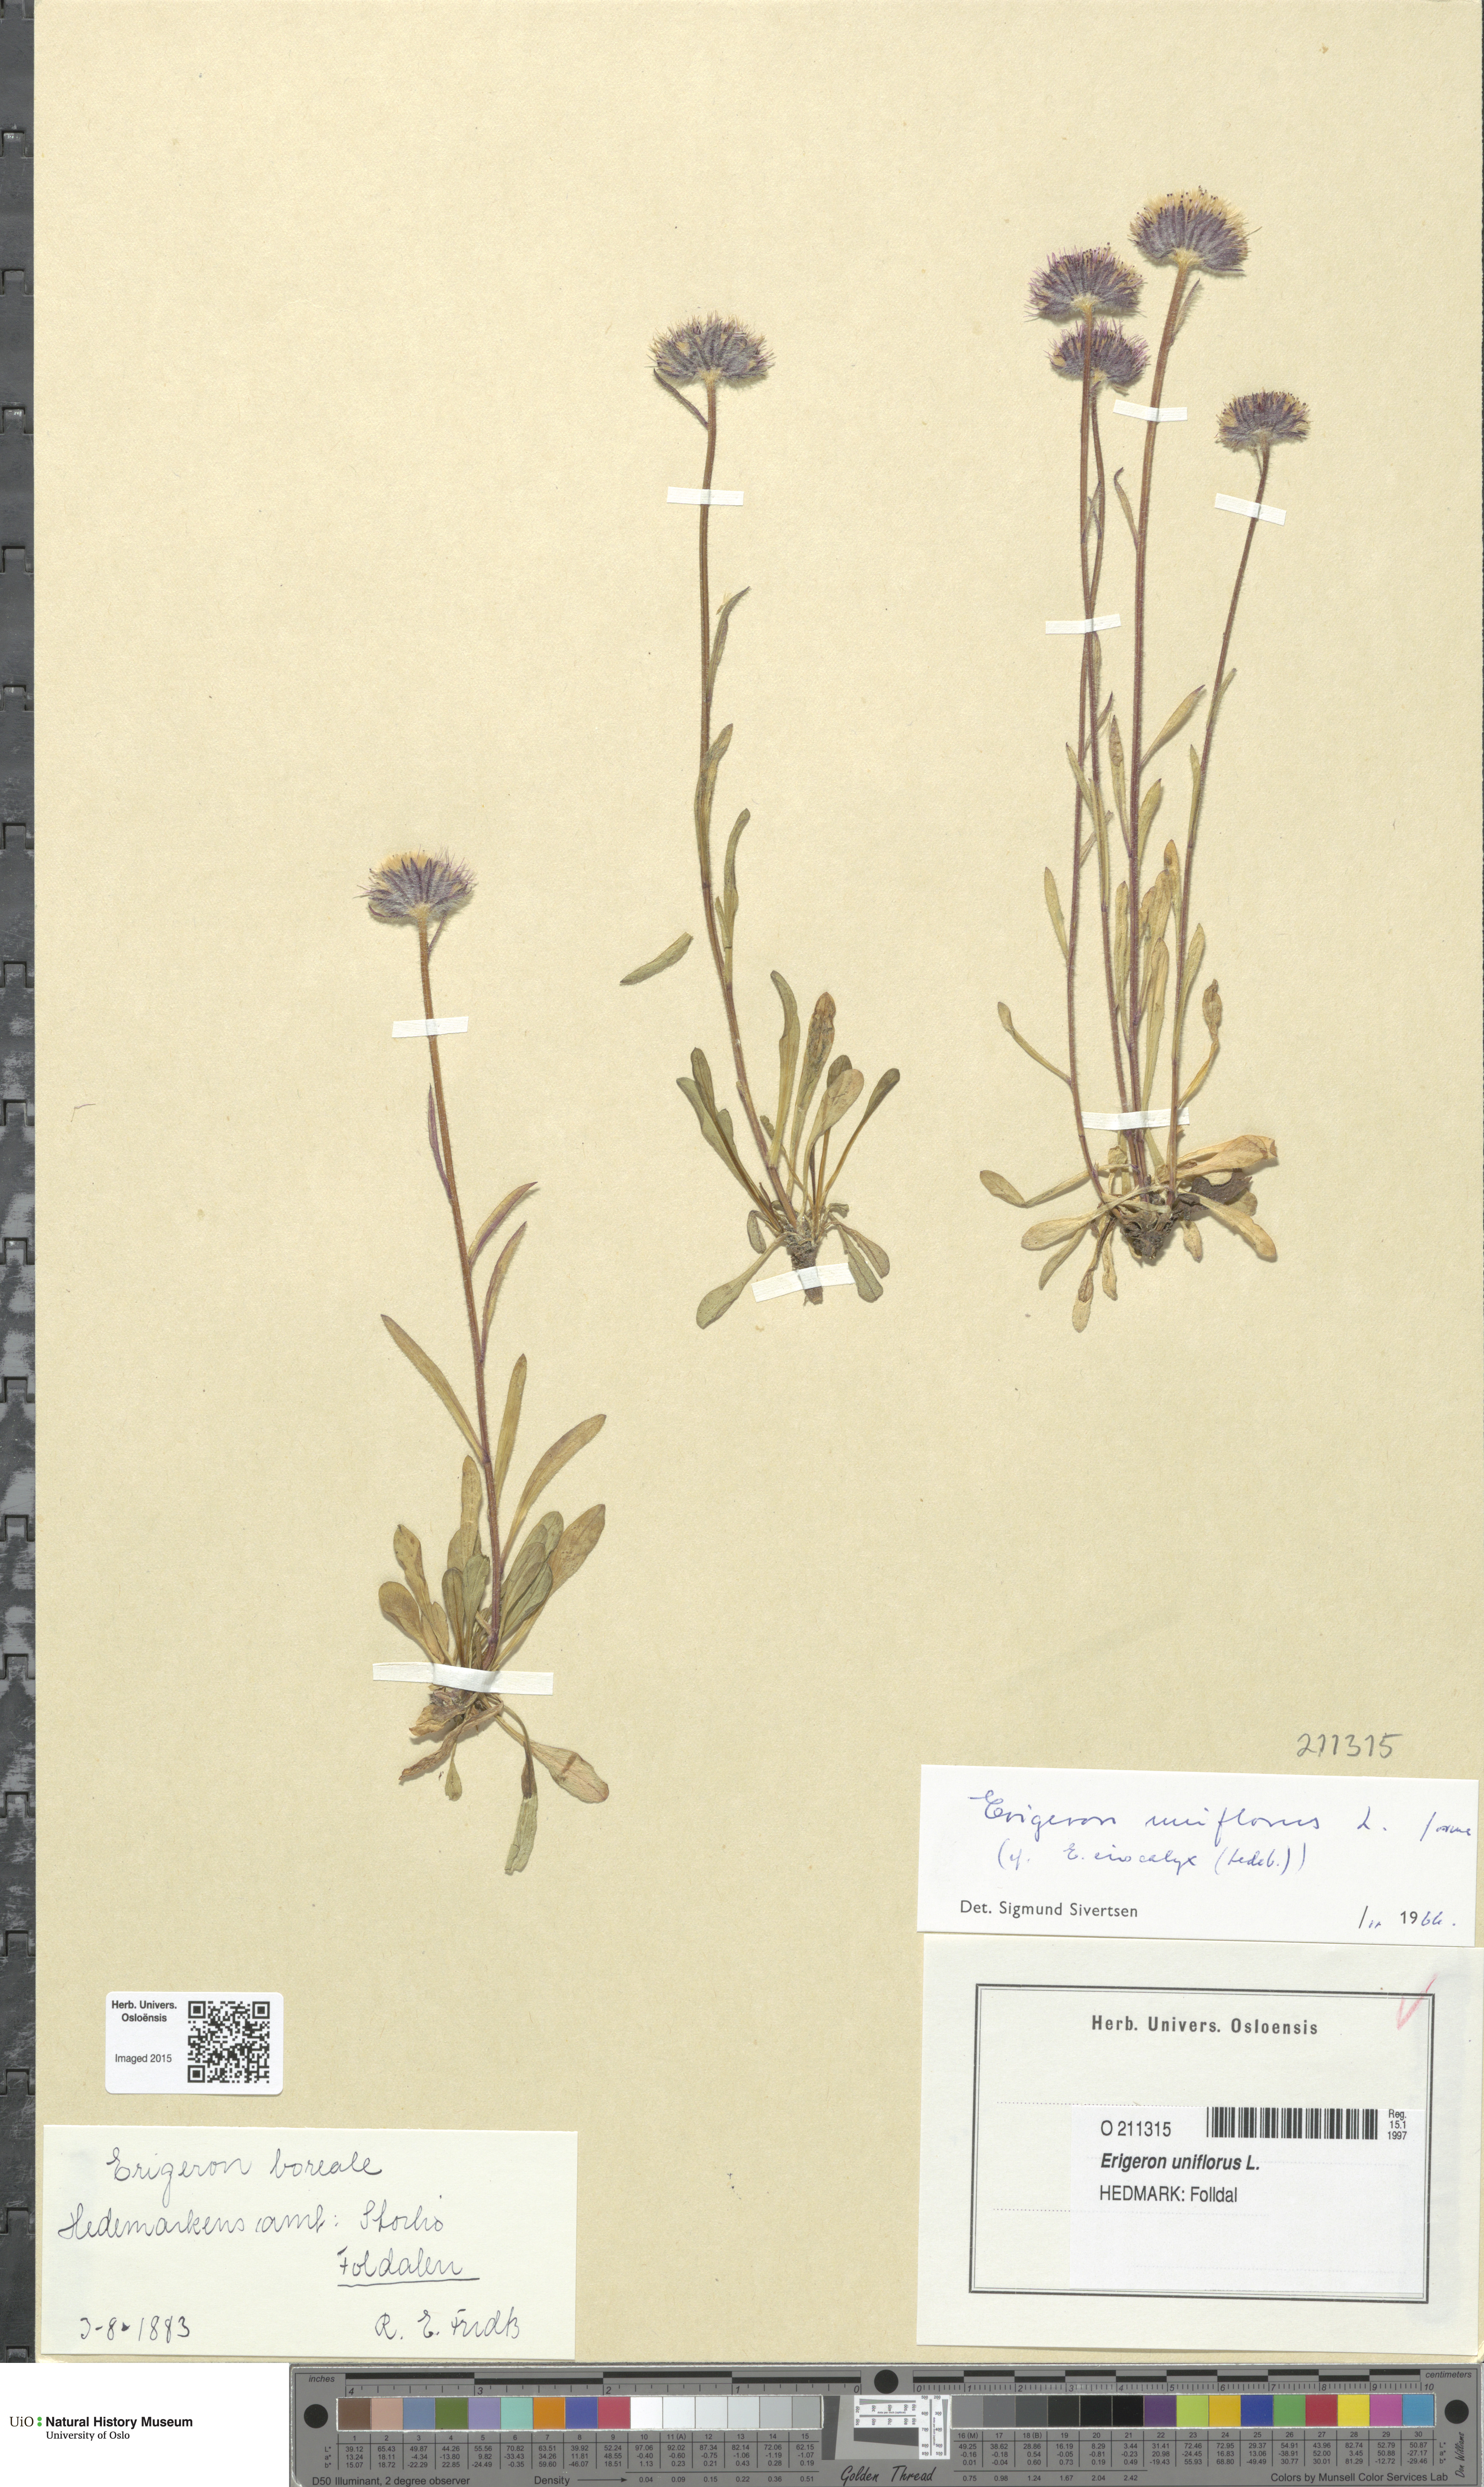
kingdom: Plantae
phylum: Tracheophyta
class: Magnoliopsida
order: Asterales
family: Asteraceae
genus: Erigeron
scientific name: Erigeron uniflorus
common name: Northern daisy
